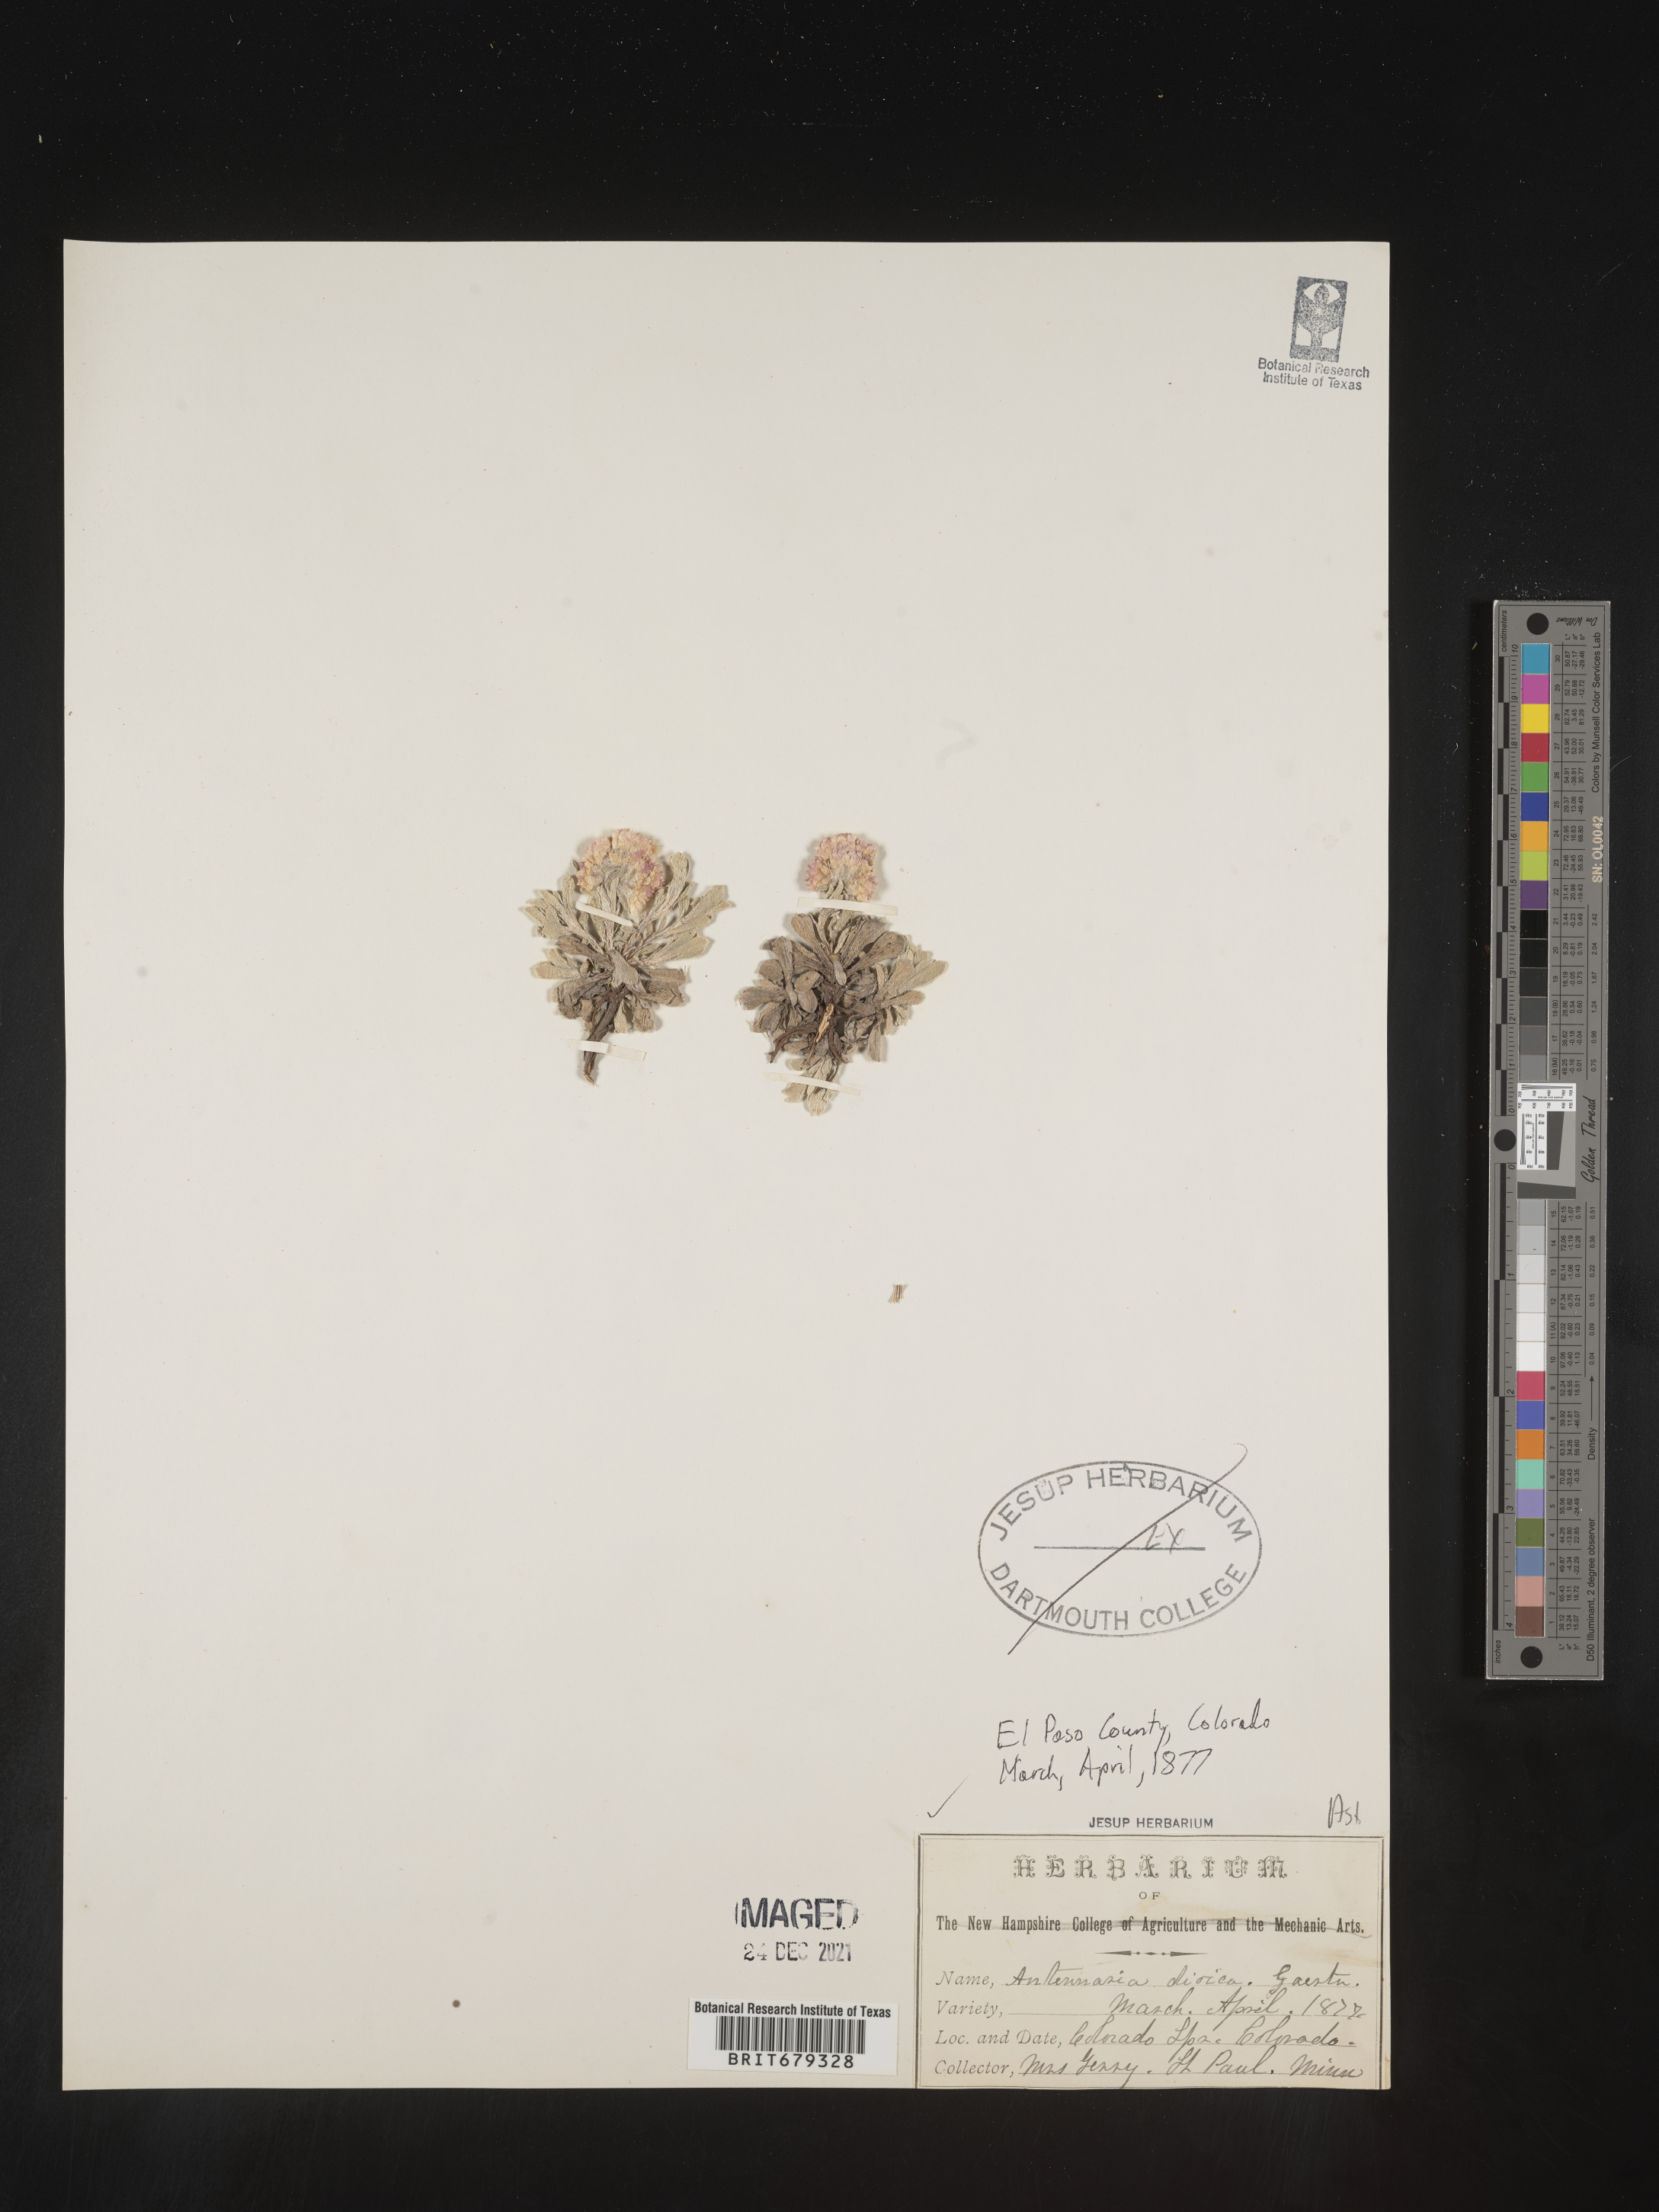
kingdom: Plantae
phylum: Tracheophyta
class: Magnoliopsida
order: Asterales
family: Asteraceae
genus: Antennaria
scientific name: Antennaria dioica
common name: Mountain everlasting
